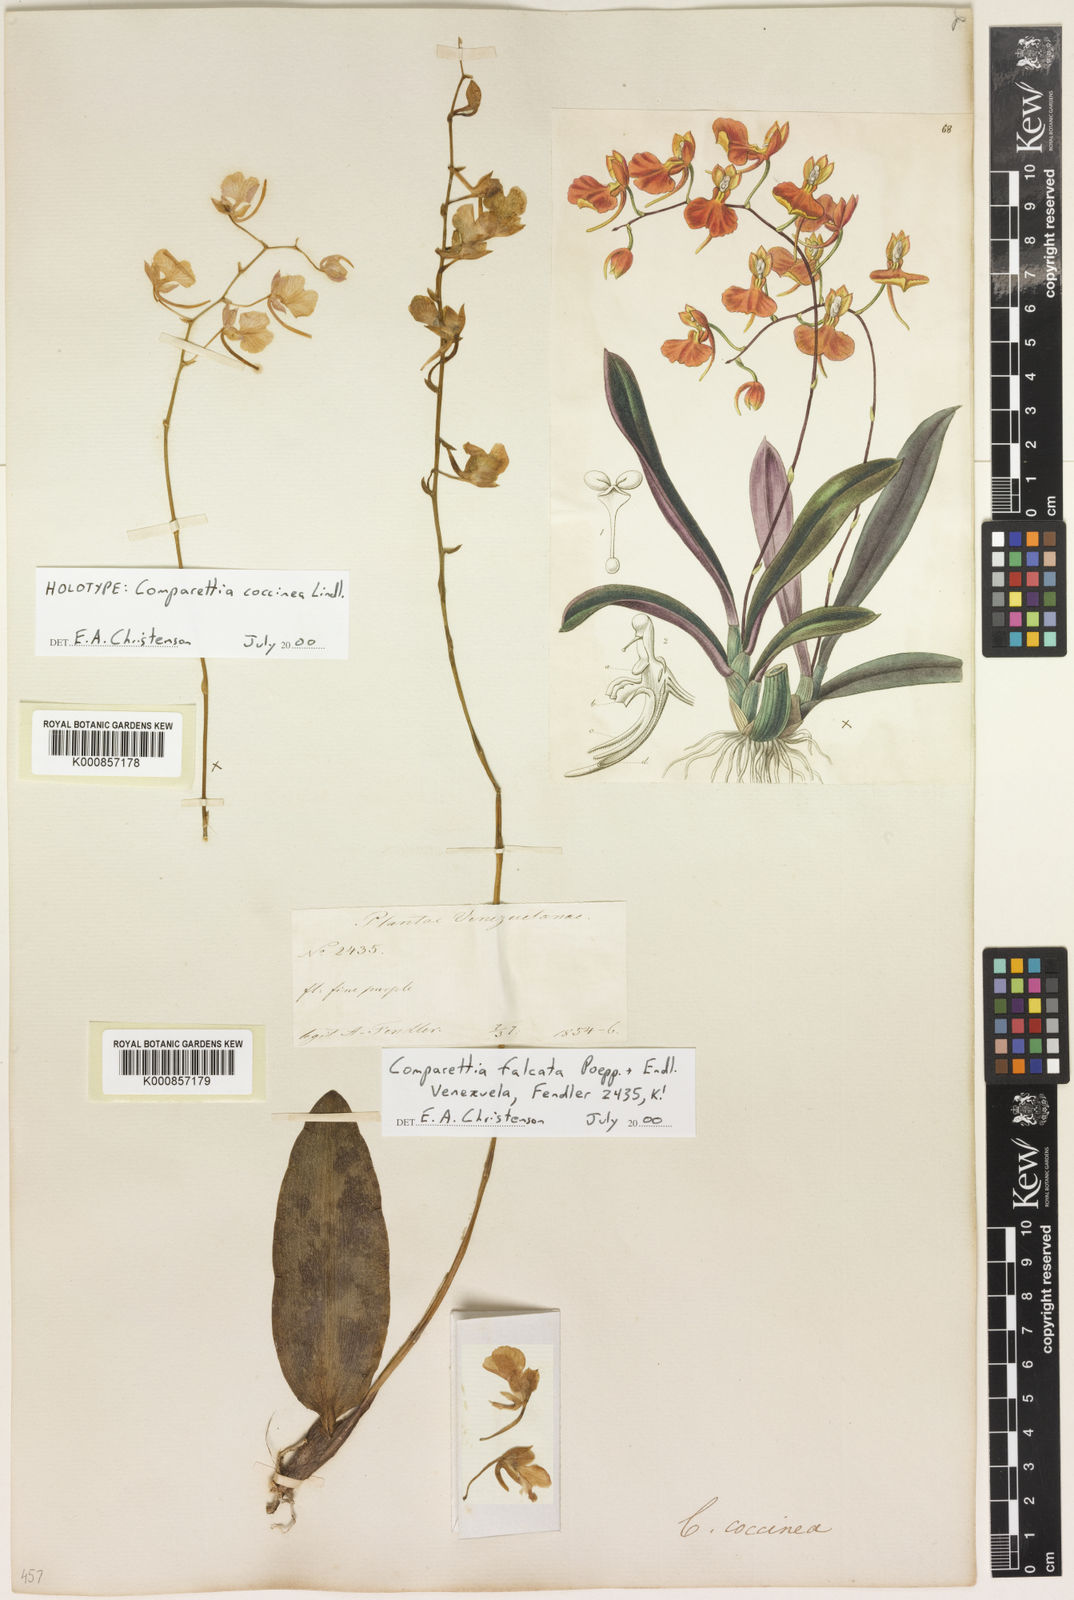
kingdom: Plantae
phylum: Tracheophyta
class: Liliopsida
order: Asparagales
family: Orchidaceae
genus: Comparettia
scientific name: Comparettia coccinea
